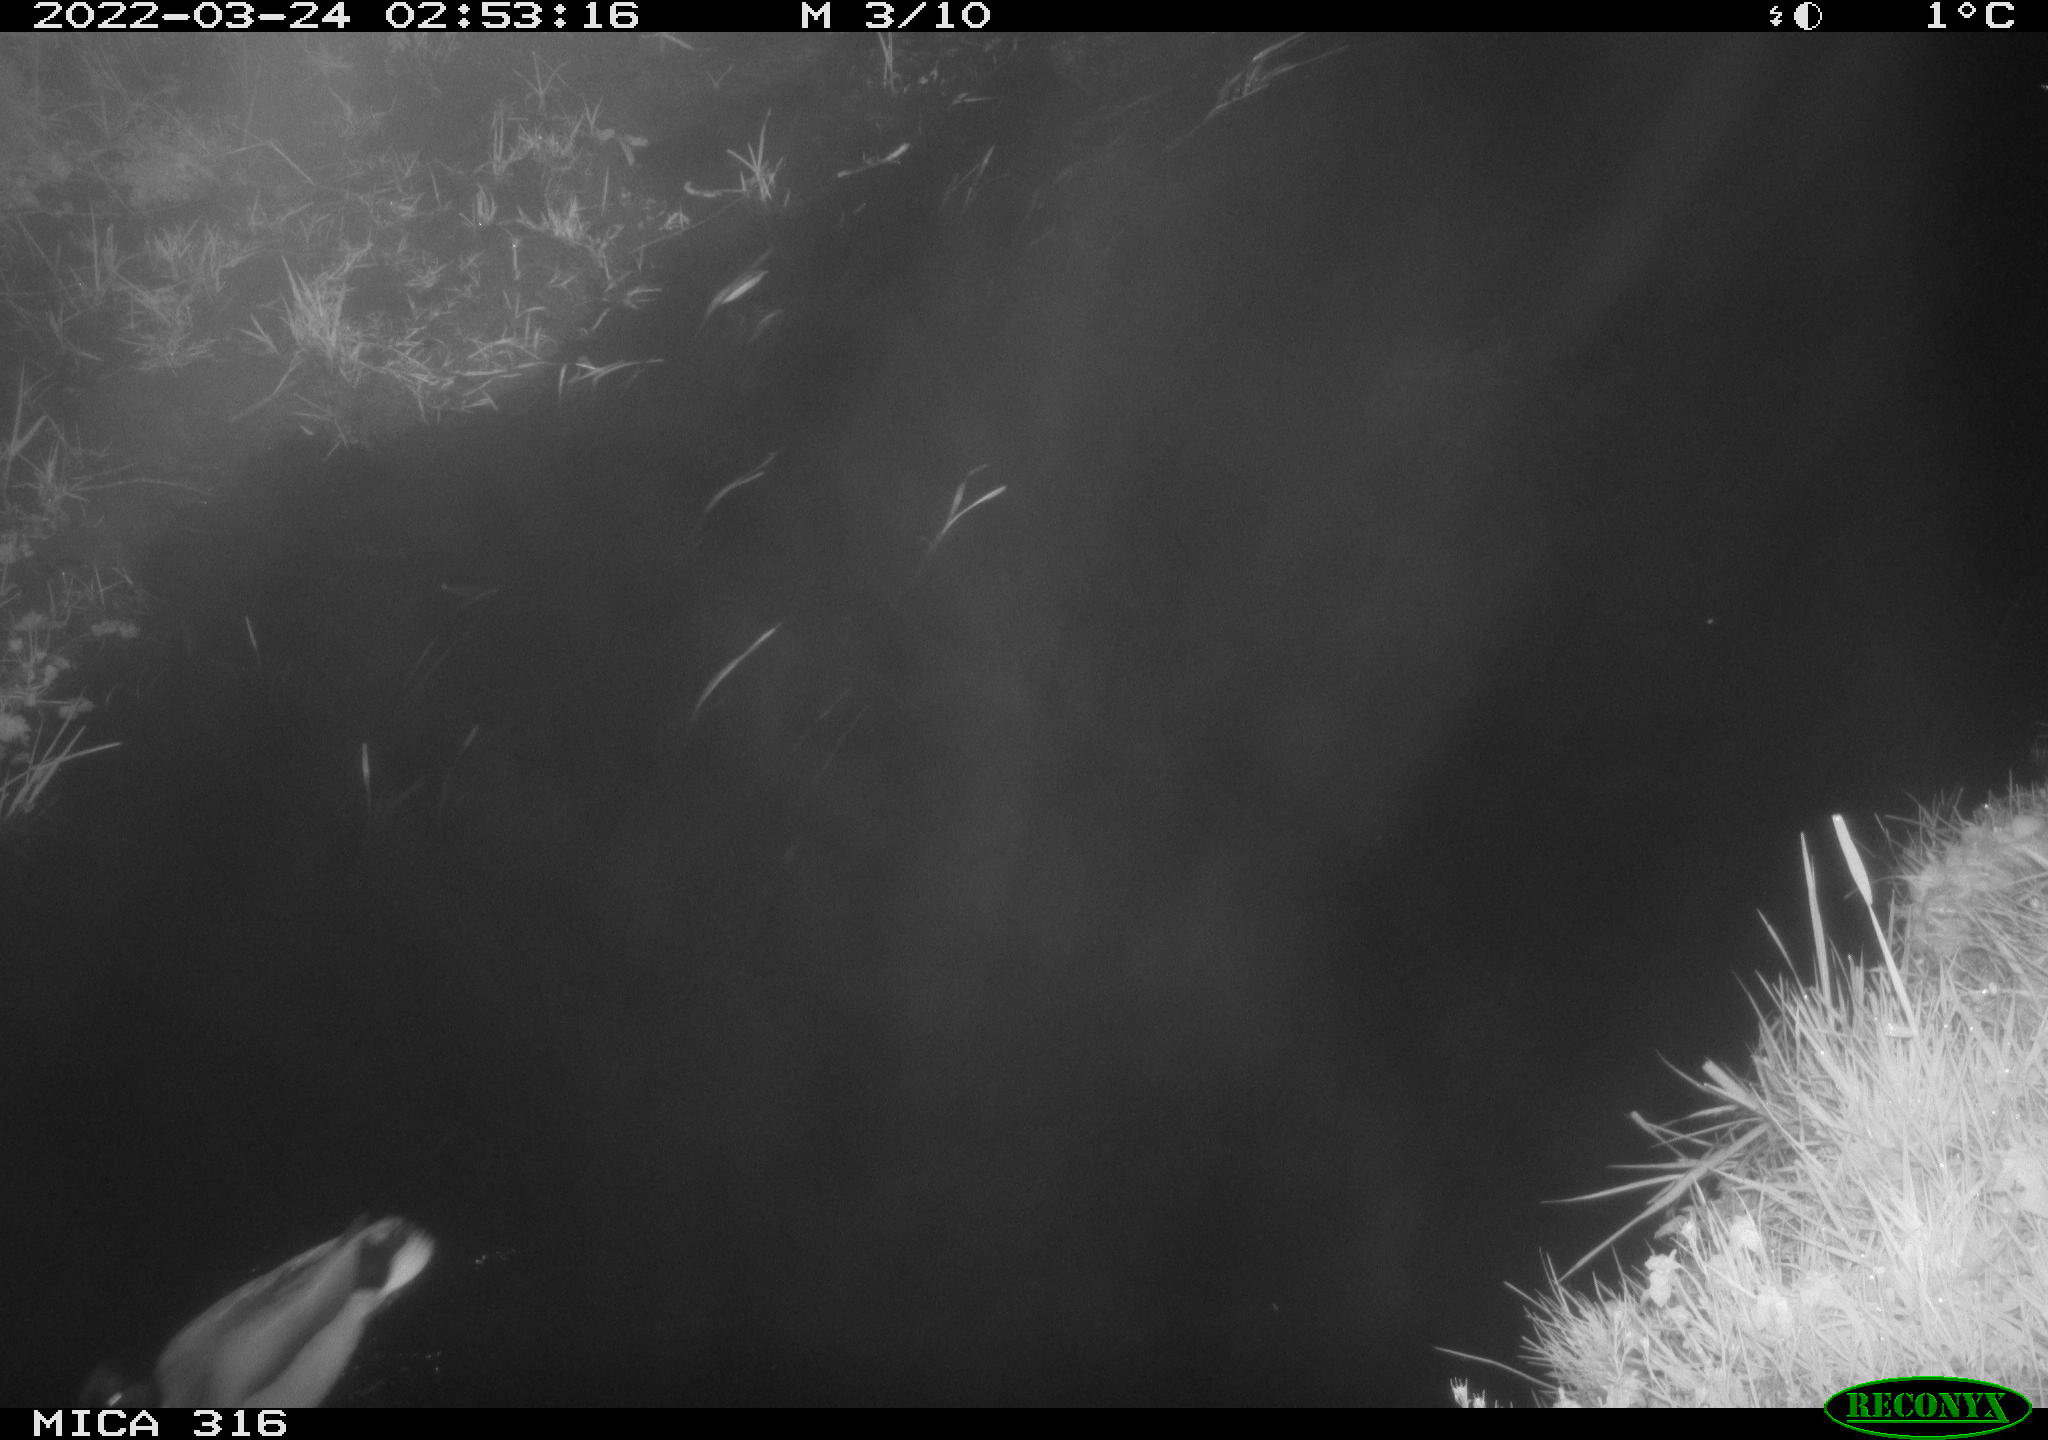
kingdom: Animalia
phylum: Chordata
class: Aves
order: Anseriformes
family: Anatidae
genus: Anas
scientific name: Anas platyrhynchos
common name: Mallard
